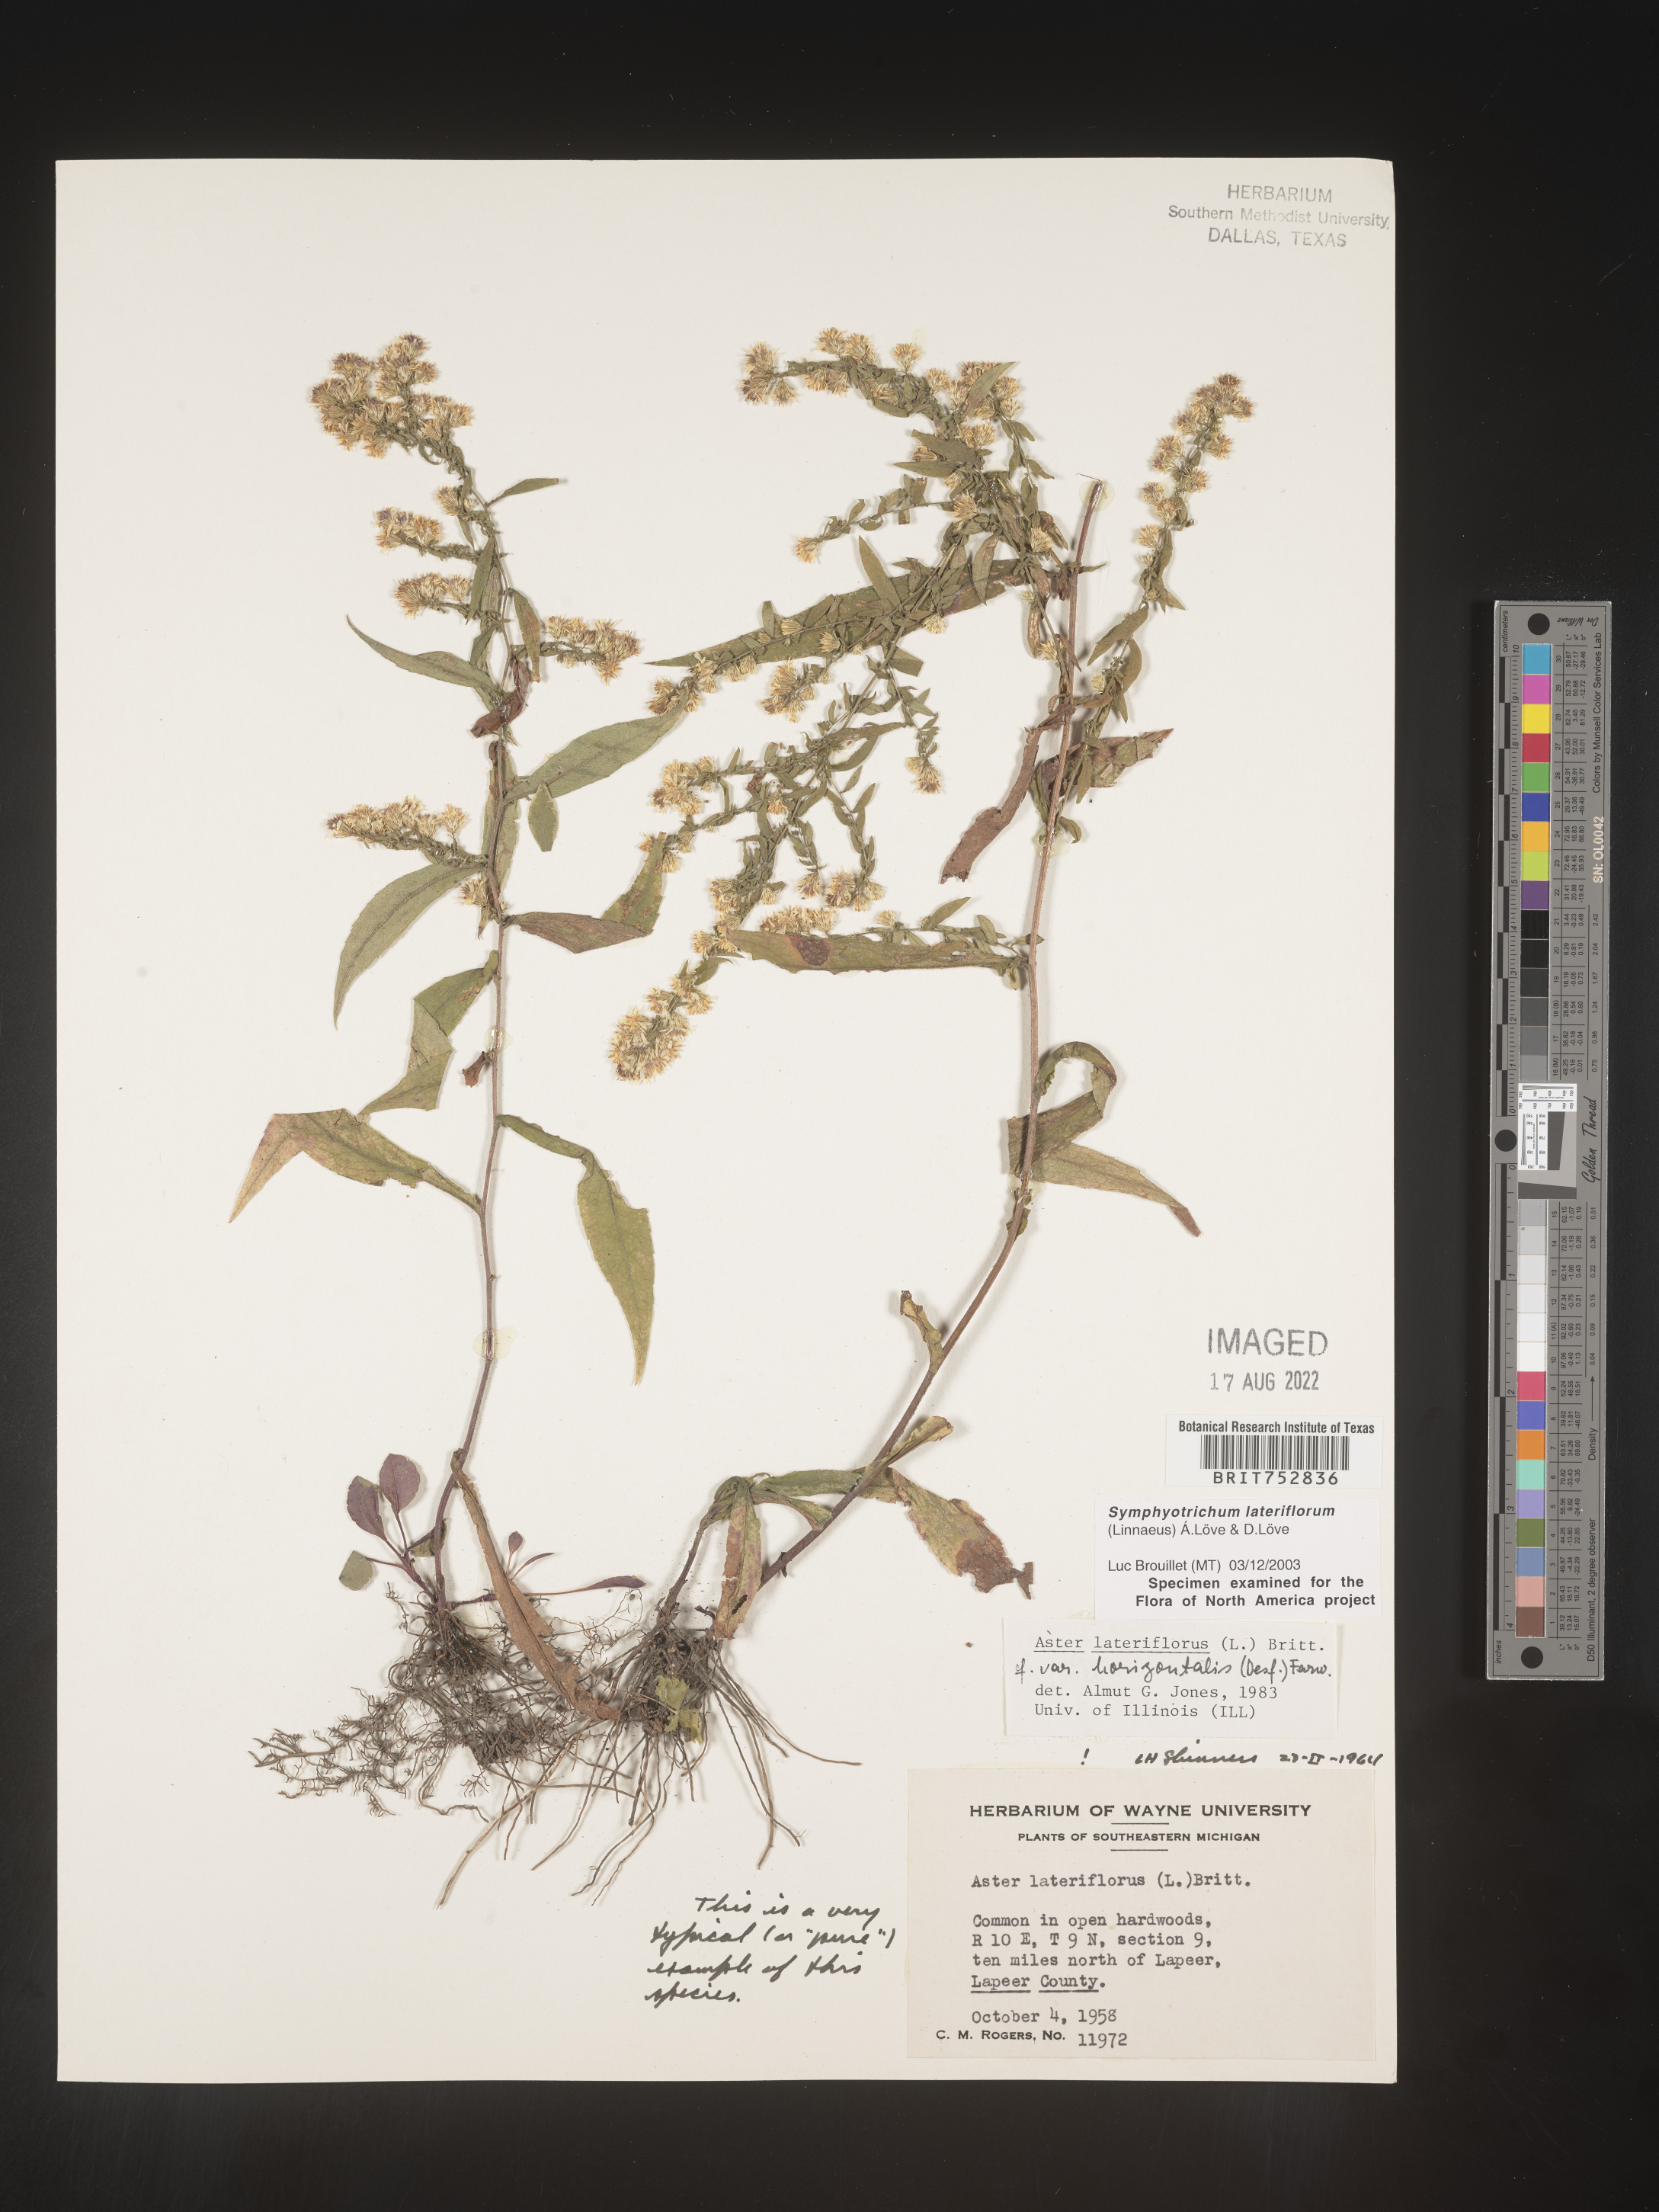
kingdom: Plantae
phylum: Tracheophyta
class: Magnoliopsida
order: Asterales
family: Asteraceae
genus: Symphyotrichum
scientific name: Symphyotrichum lateriflorum
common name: Calico aster
